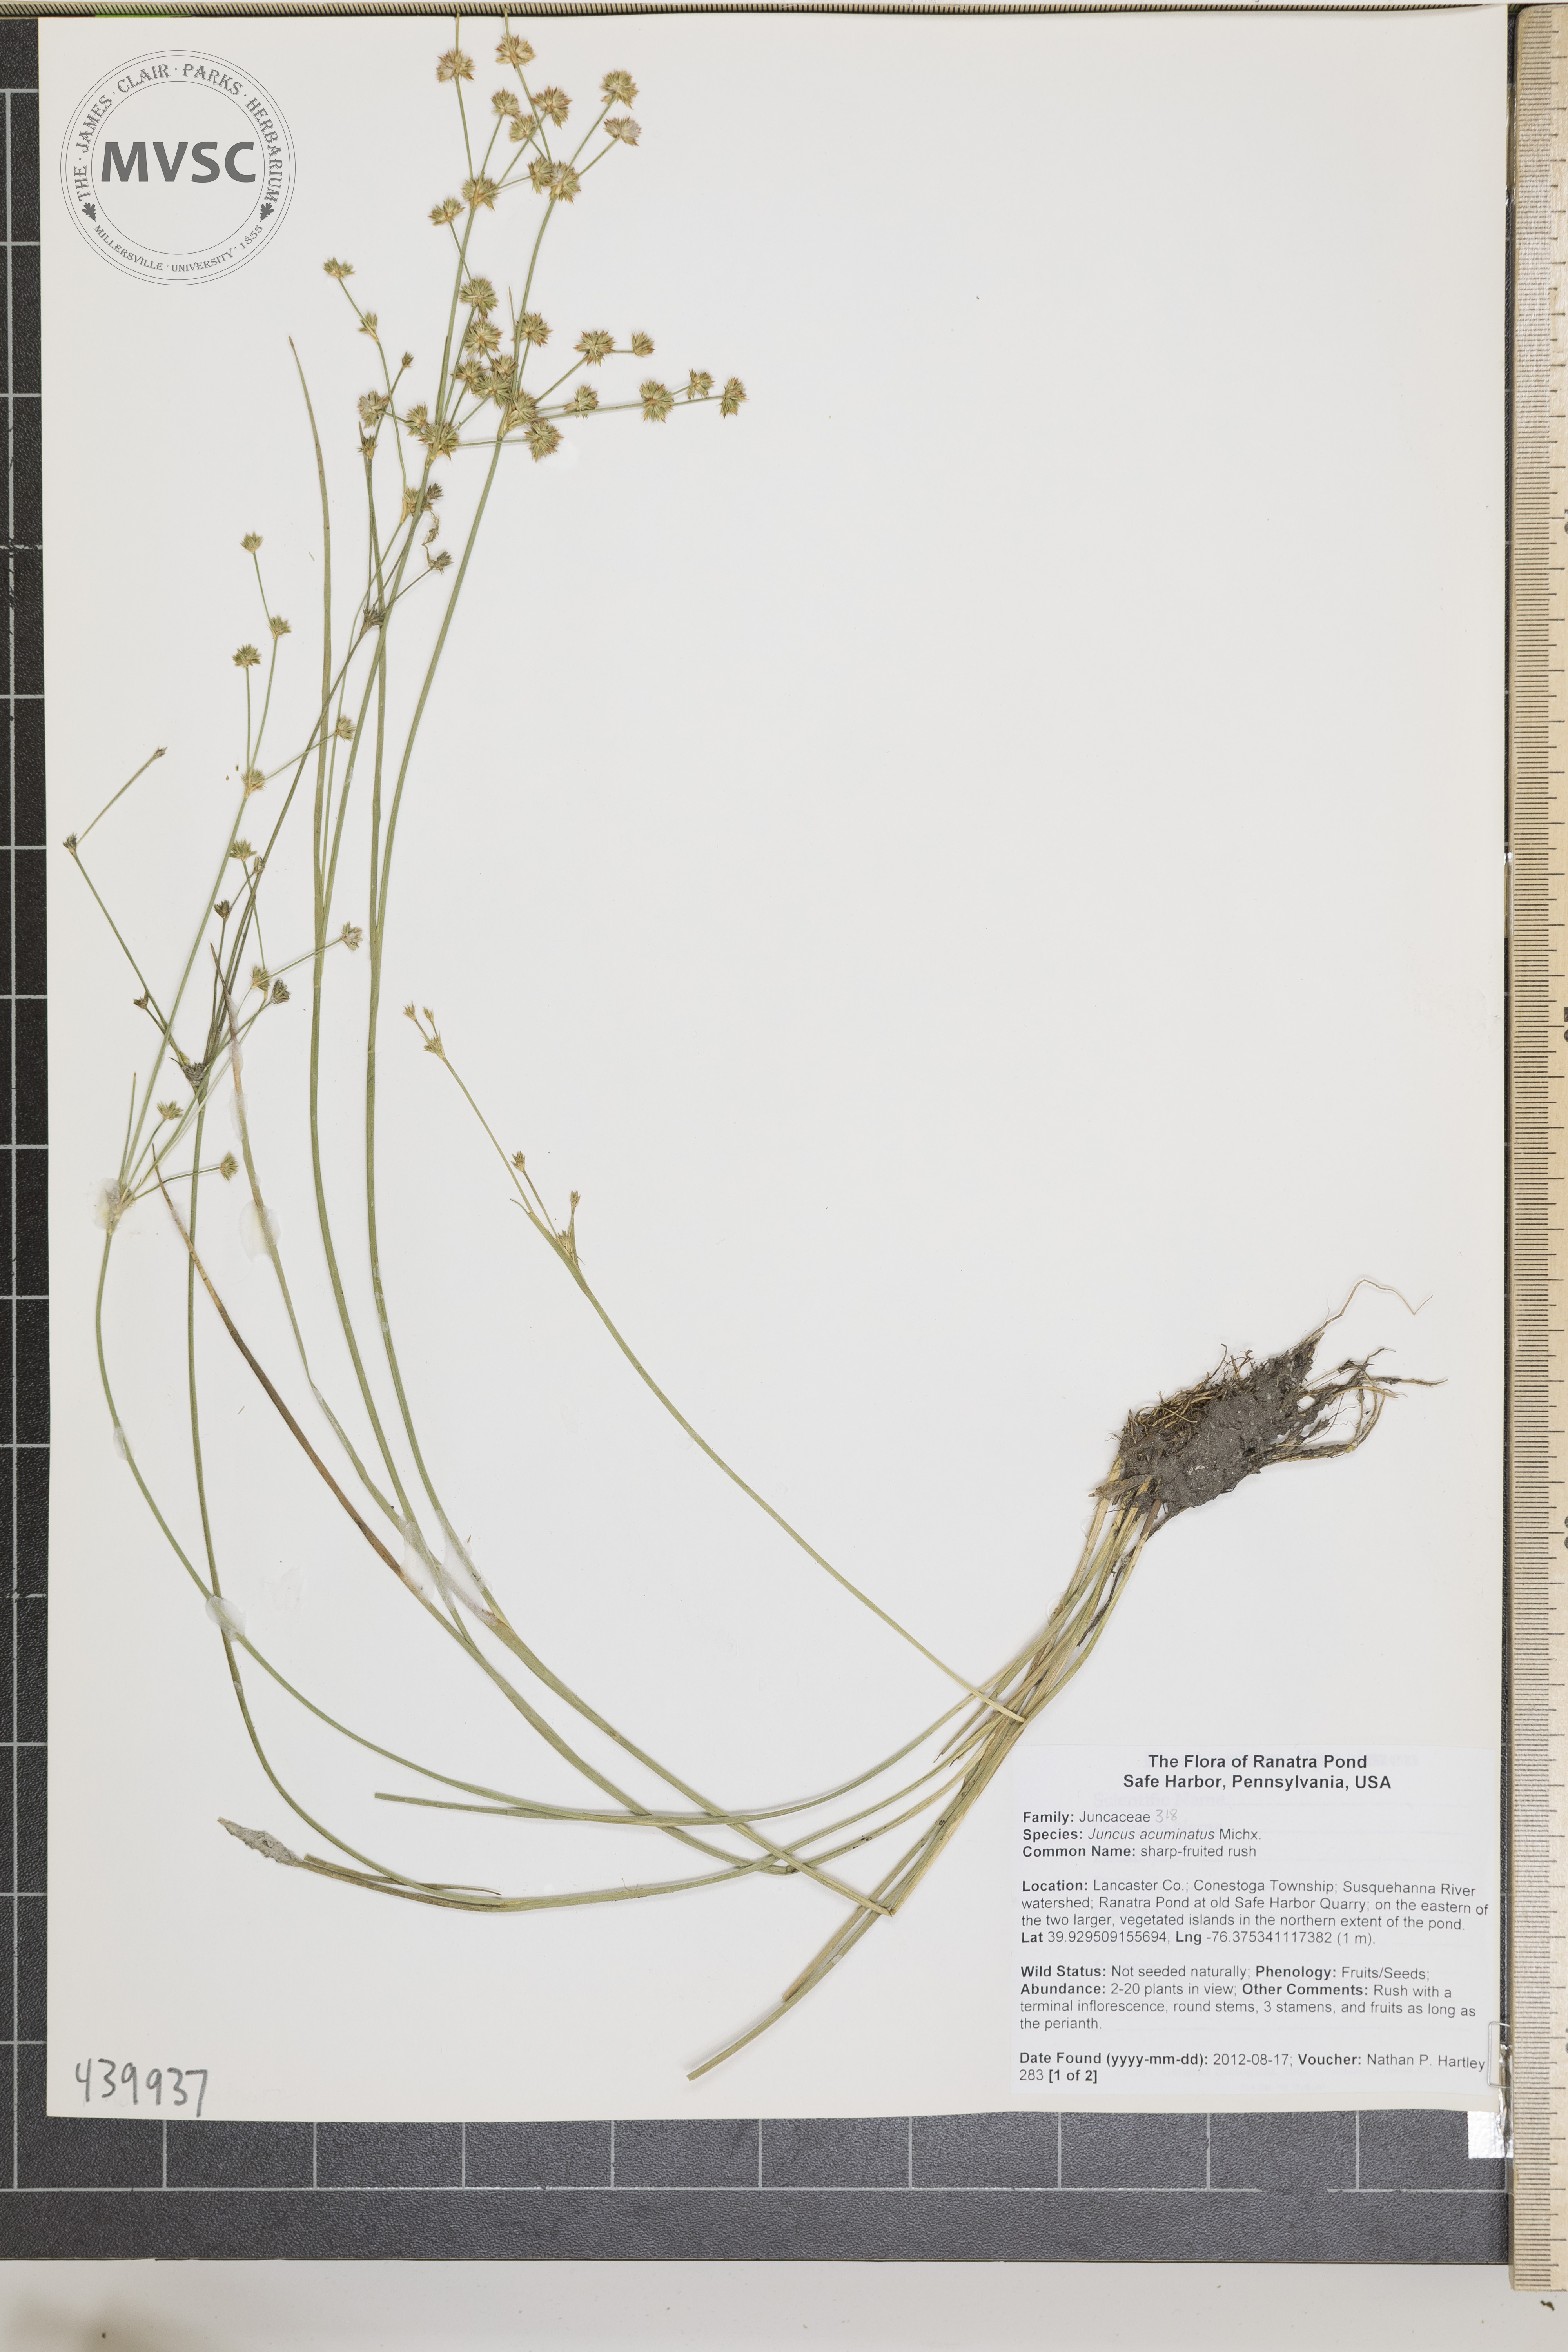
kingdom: Plantae
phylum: Tracheophyta
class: Liliopsida
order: Poales
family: Juncaceae
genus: Juncus
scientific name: Juncus acuminatus
